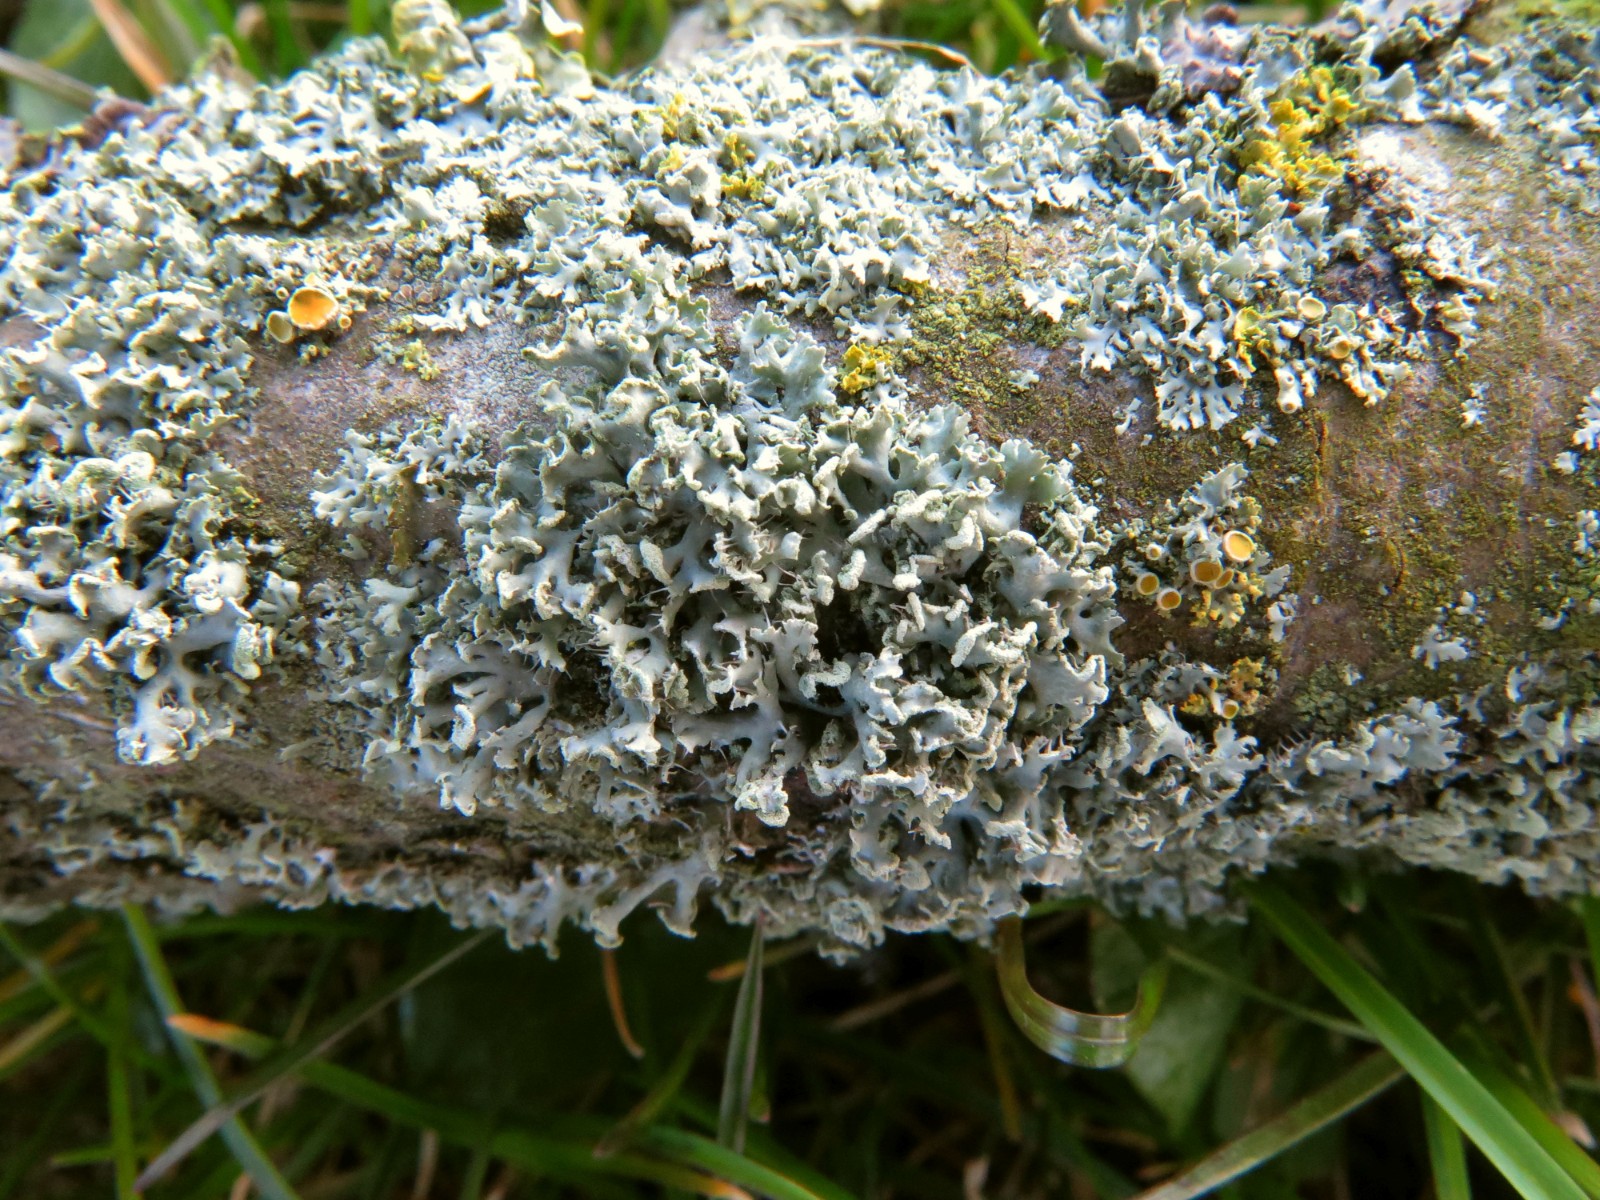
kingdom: Fungi
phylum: Ascomycota
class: Lecanoromycetes
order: Caliciales
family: Physciaceae
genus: Physcia
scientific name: Physcia tenella
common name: spæd rosetlav
